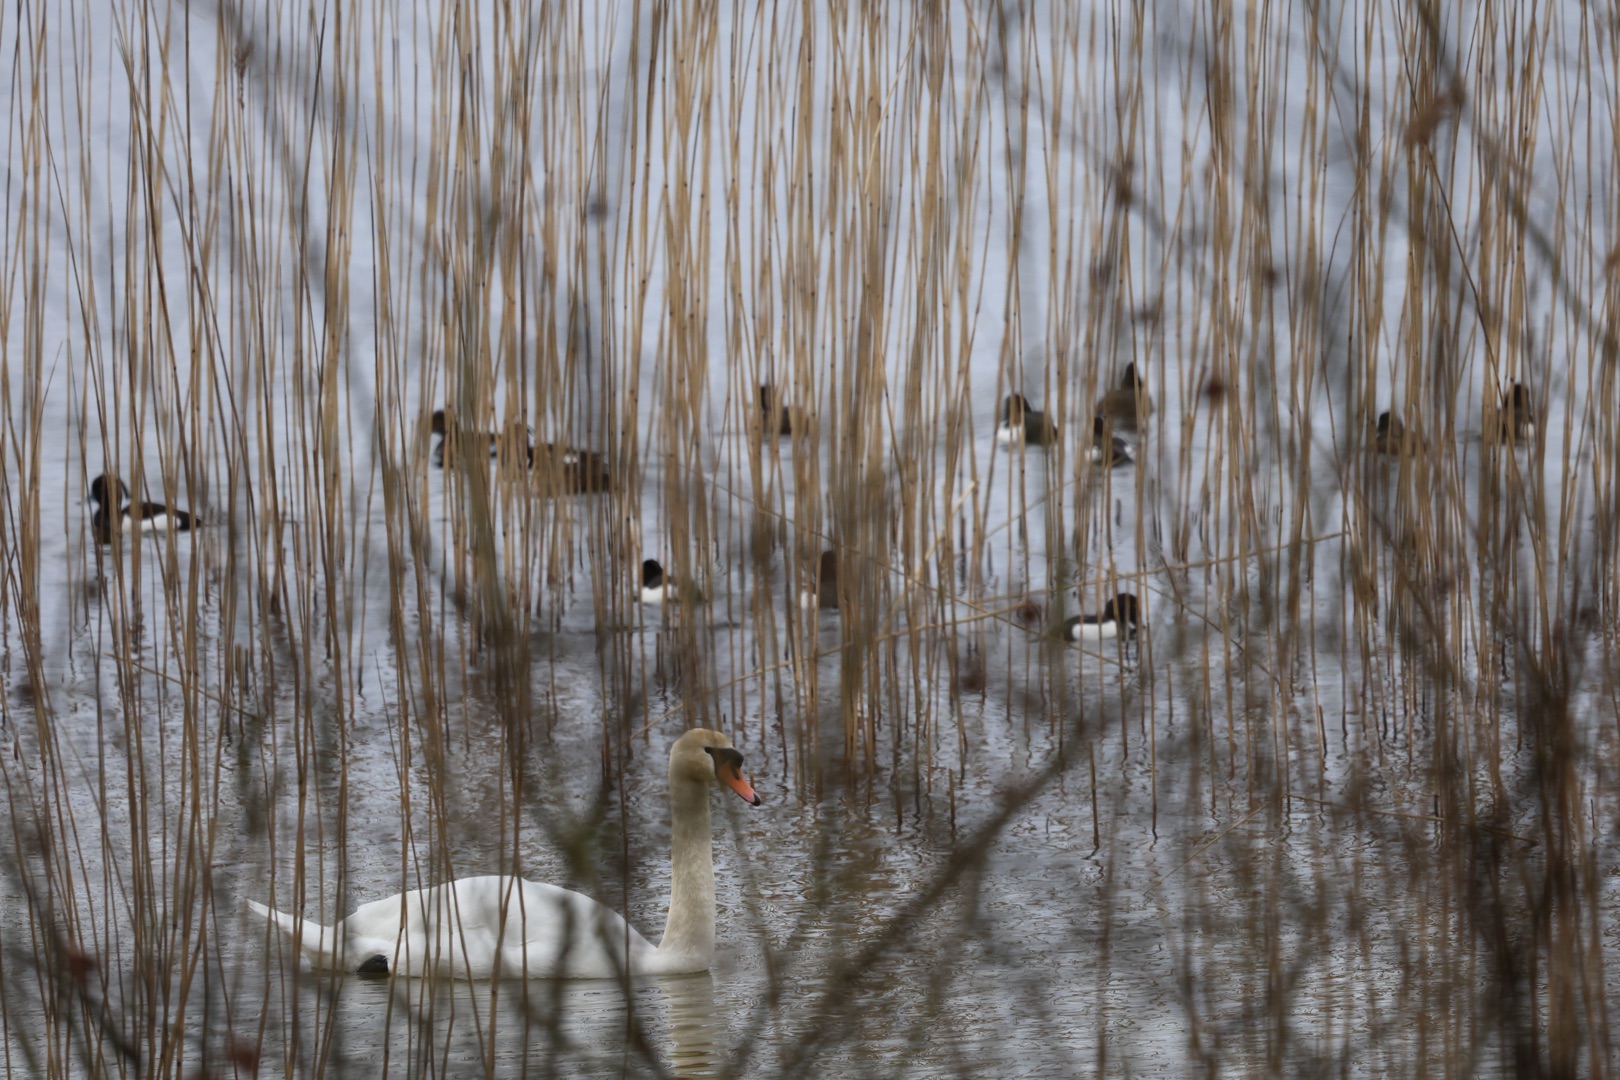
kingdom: Animalia
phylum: Chordata
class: Aves
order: Anseriformes
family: Anatidae
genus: Cygnus
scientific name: Cygnus olor
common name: Knopsvane
